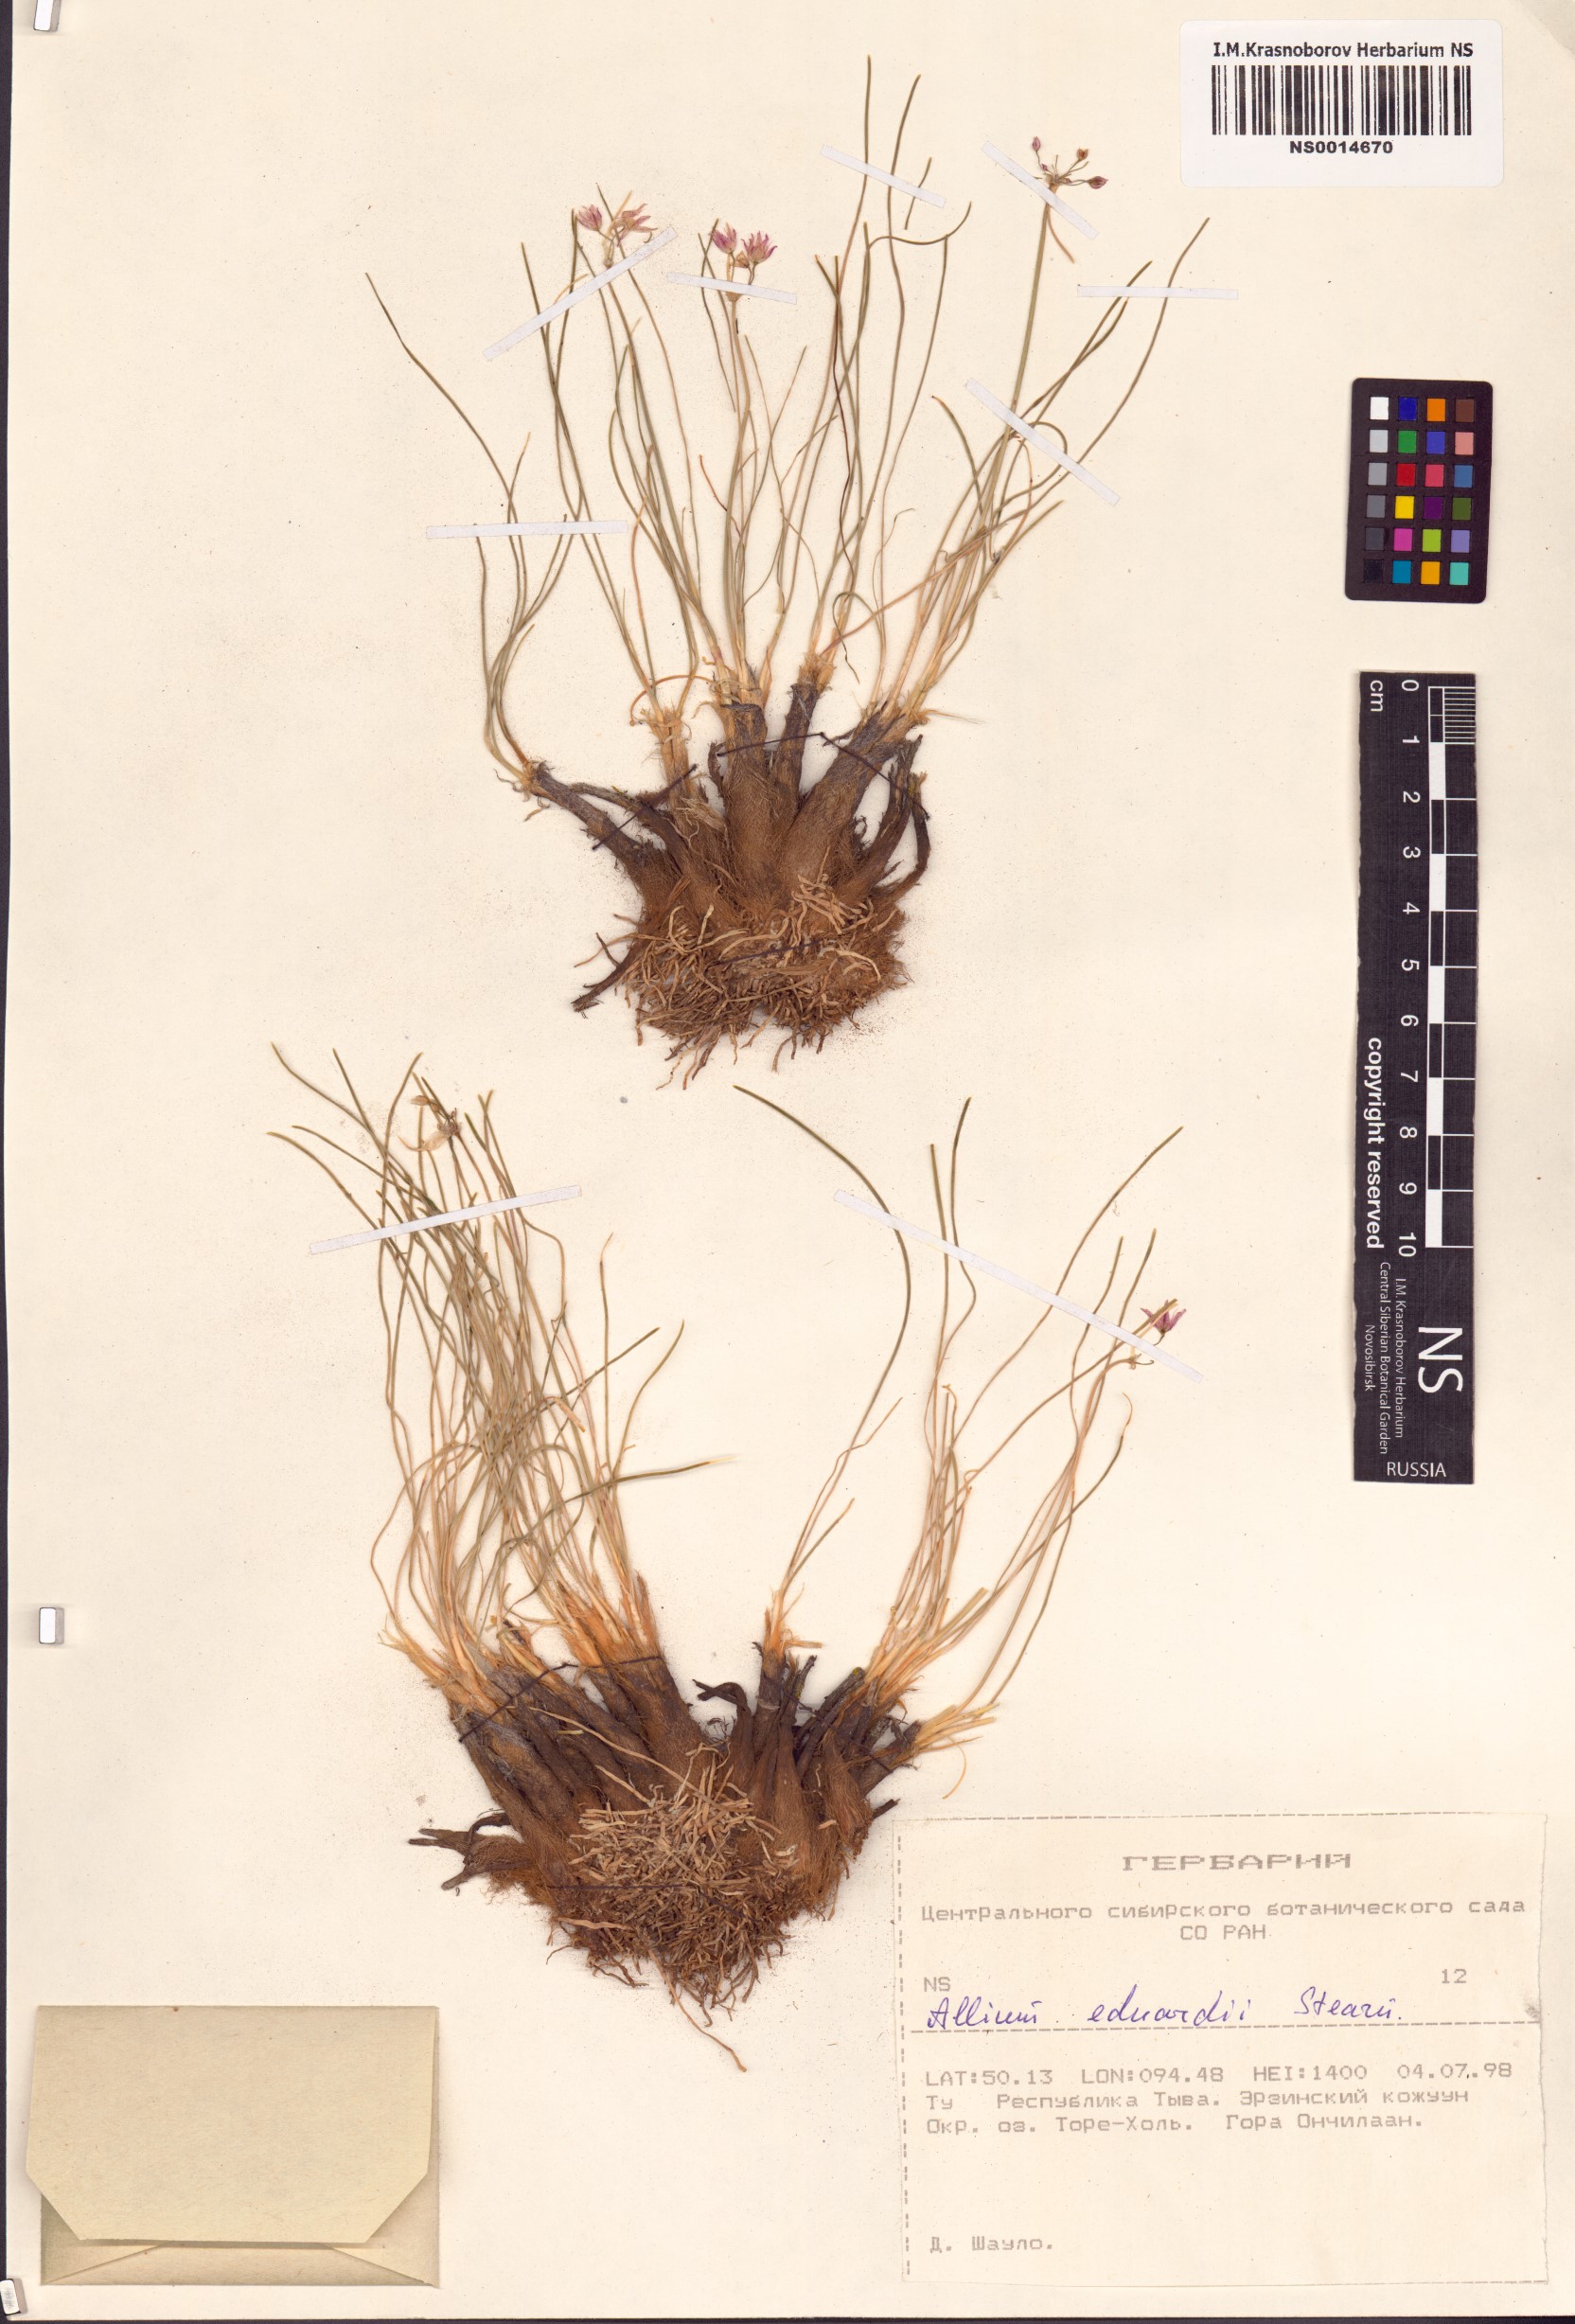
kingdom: Plantae
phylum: Tracheophyta
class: Liliopsida
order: Asparagales
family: Amaryllidaceae
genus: Allium
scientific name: Allium eduardi
